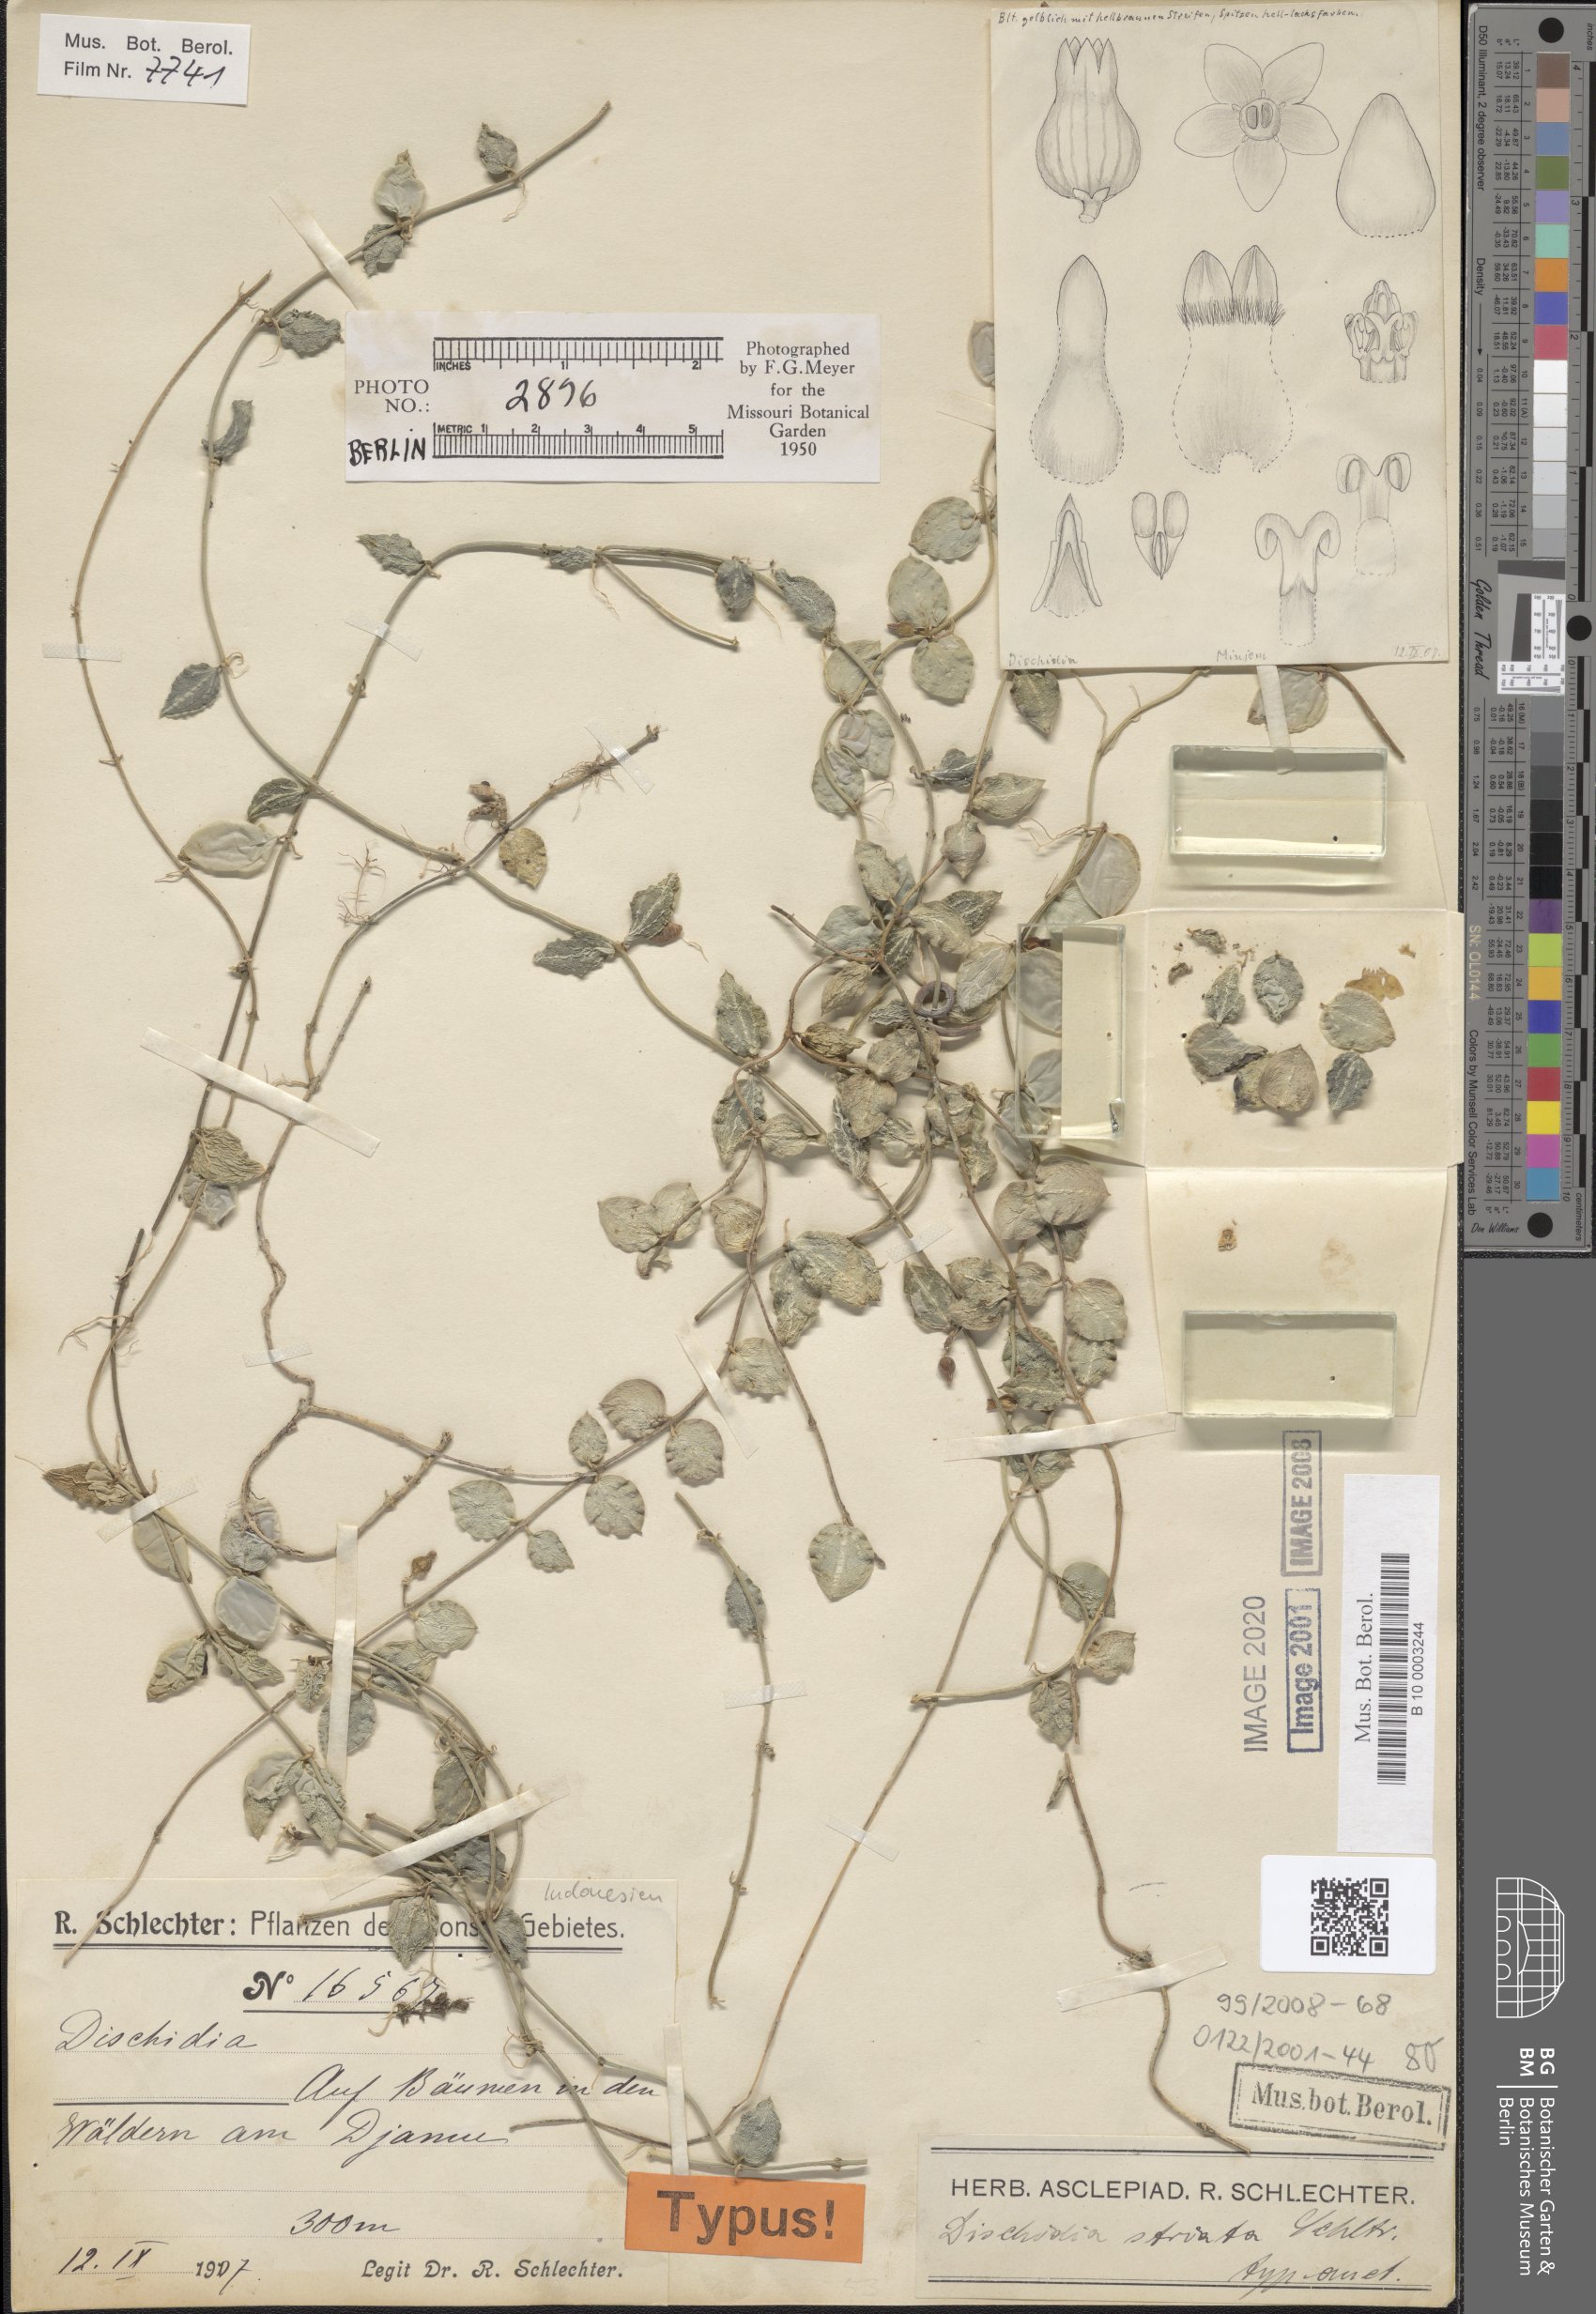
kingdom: Plantae
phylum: Tracheophyta
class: Magnoliopsida
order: Gentianales
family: Apocynaceae
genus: Dischidia
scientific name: Dischidia striata
